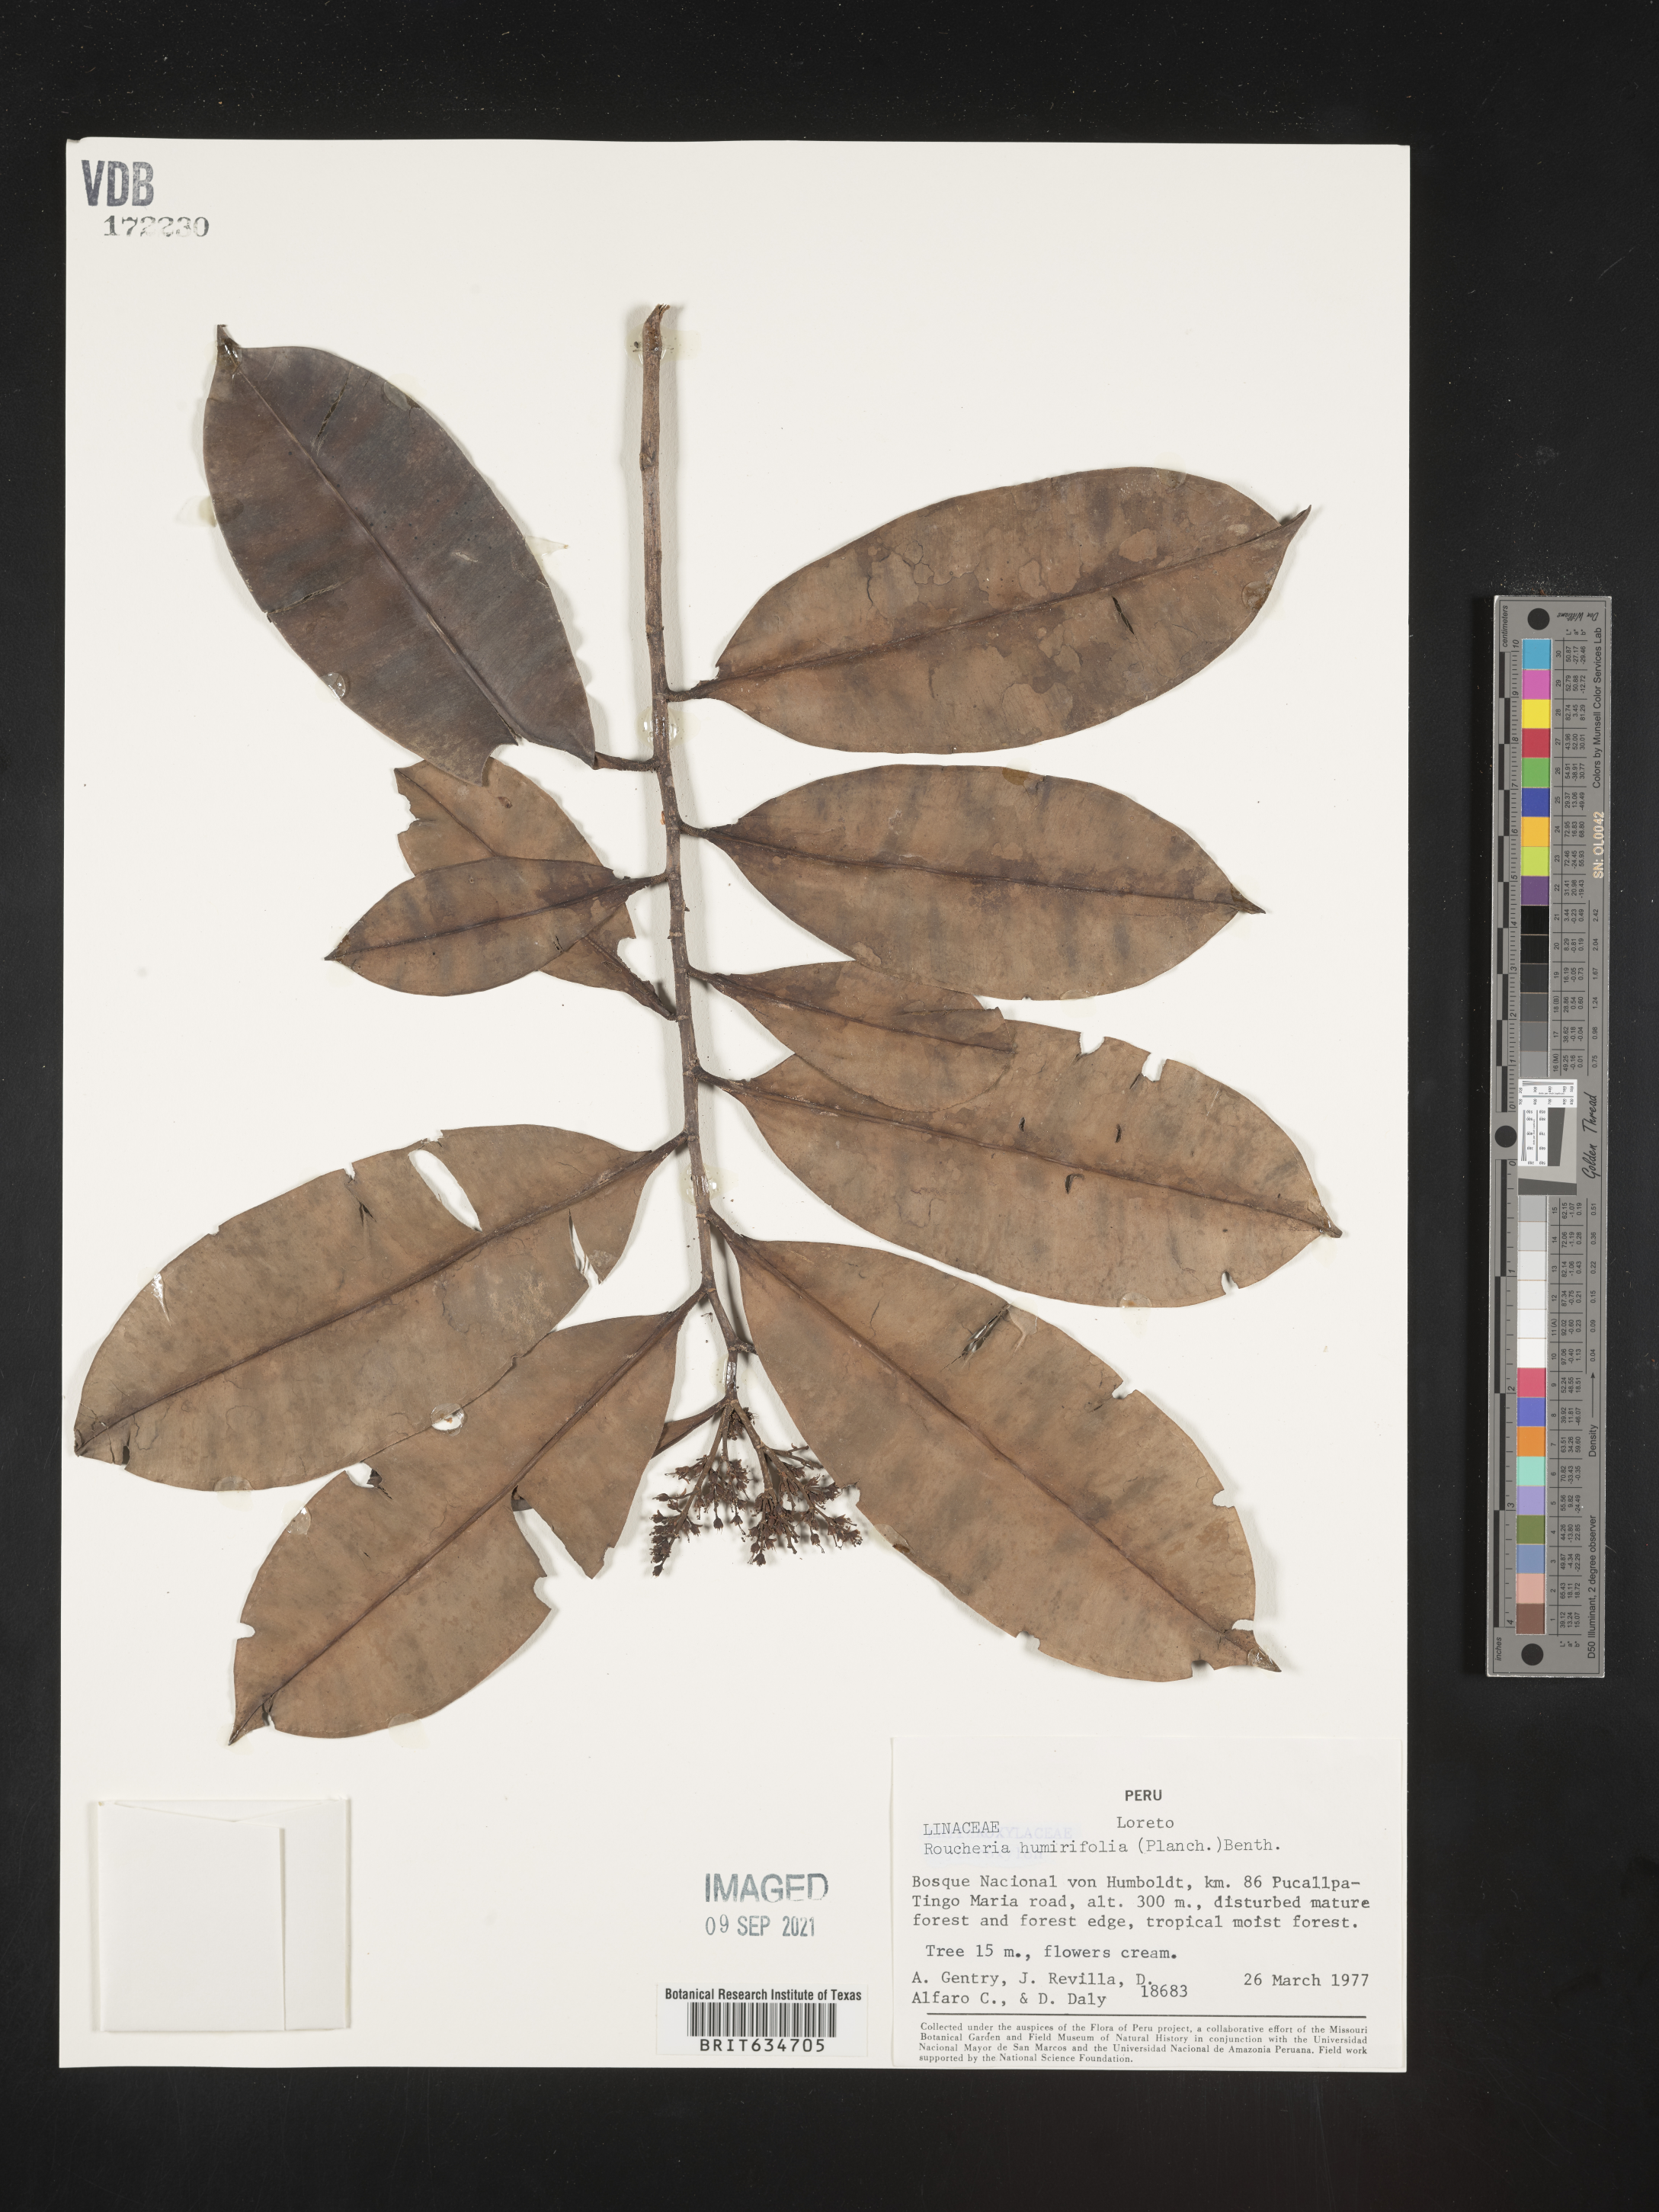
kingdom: Plantae
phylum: Tracheophyta
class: Magnoliopsida
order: Malpighiales
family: Linaceae
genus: Roucheria
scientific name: Roucheria
